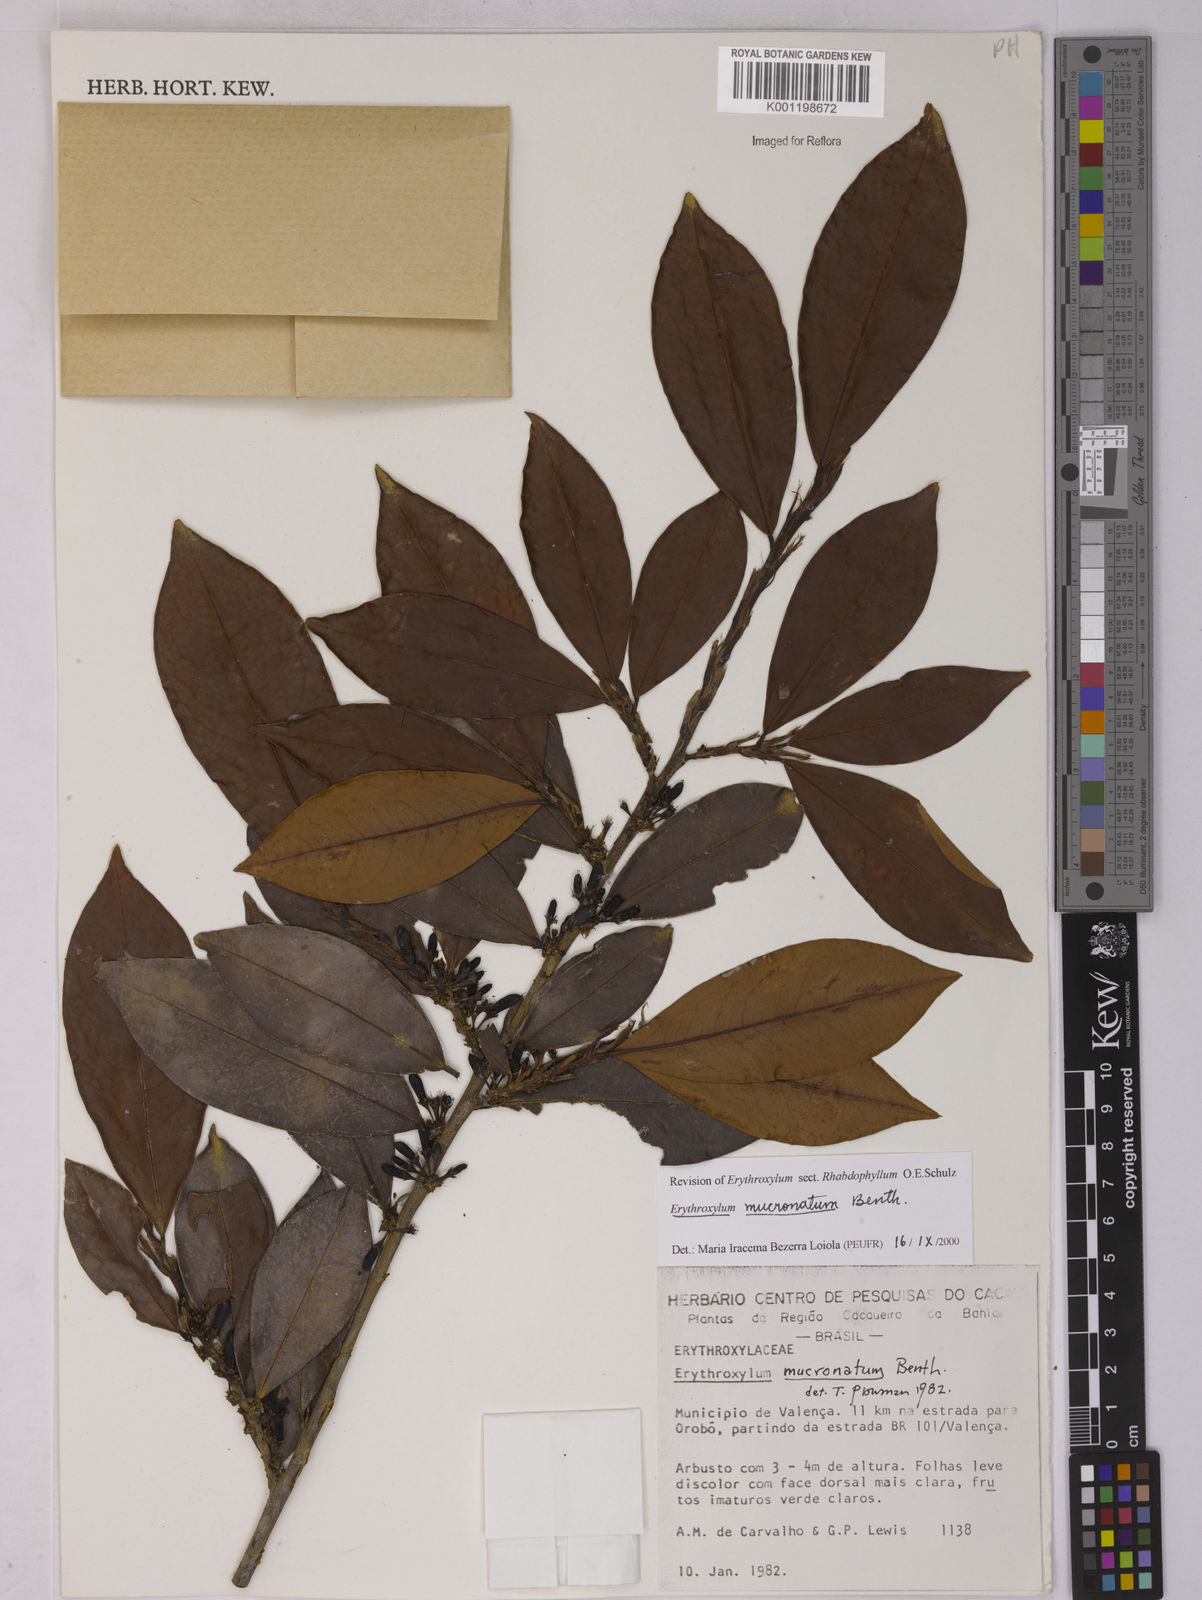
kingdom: Plantae
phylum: Tracheophyta
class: Magnoliopsida
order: Malpighiales
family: Erythroxylaceae
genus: Erythroxylum
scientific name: Erythroxylum mucronatum
